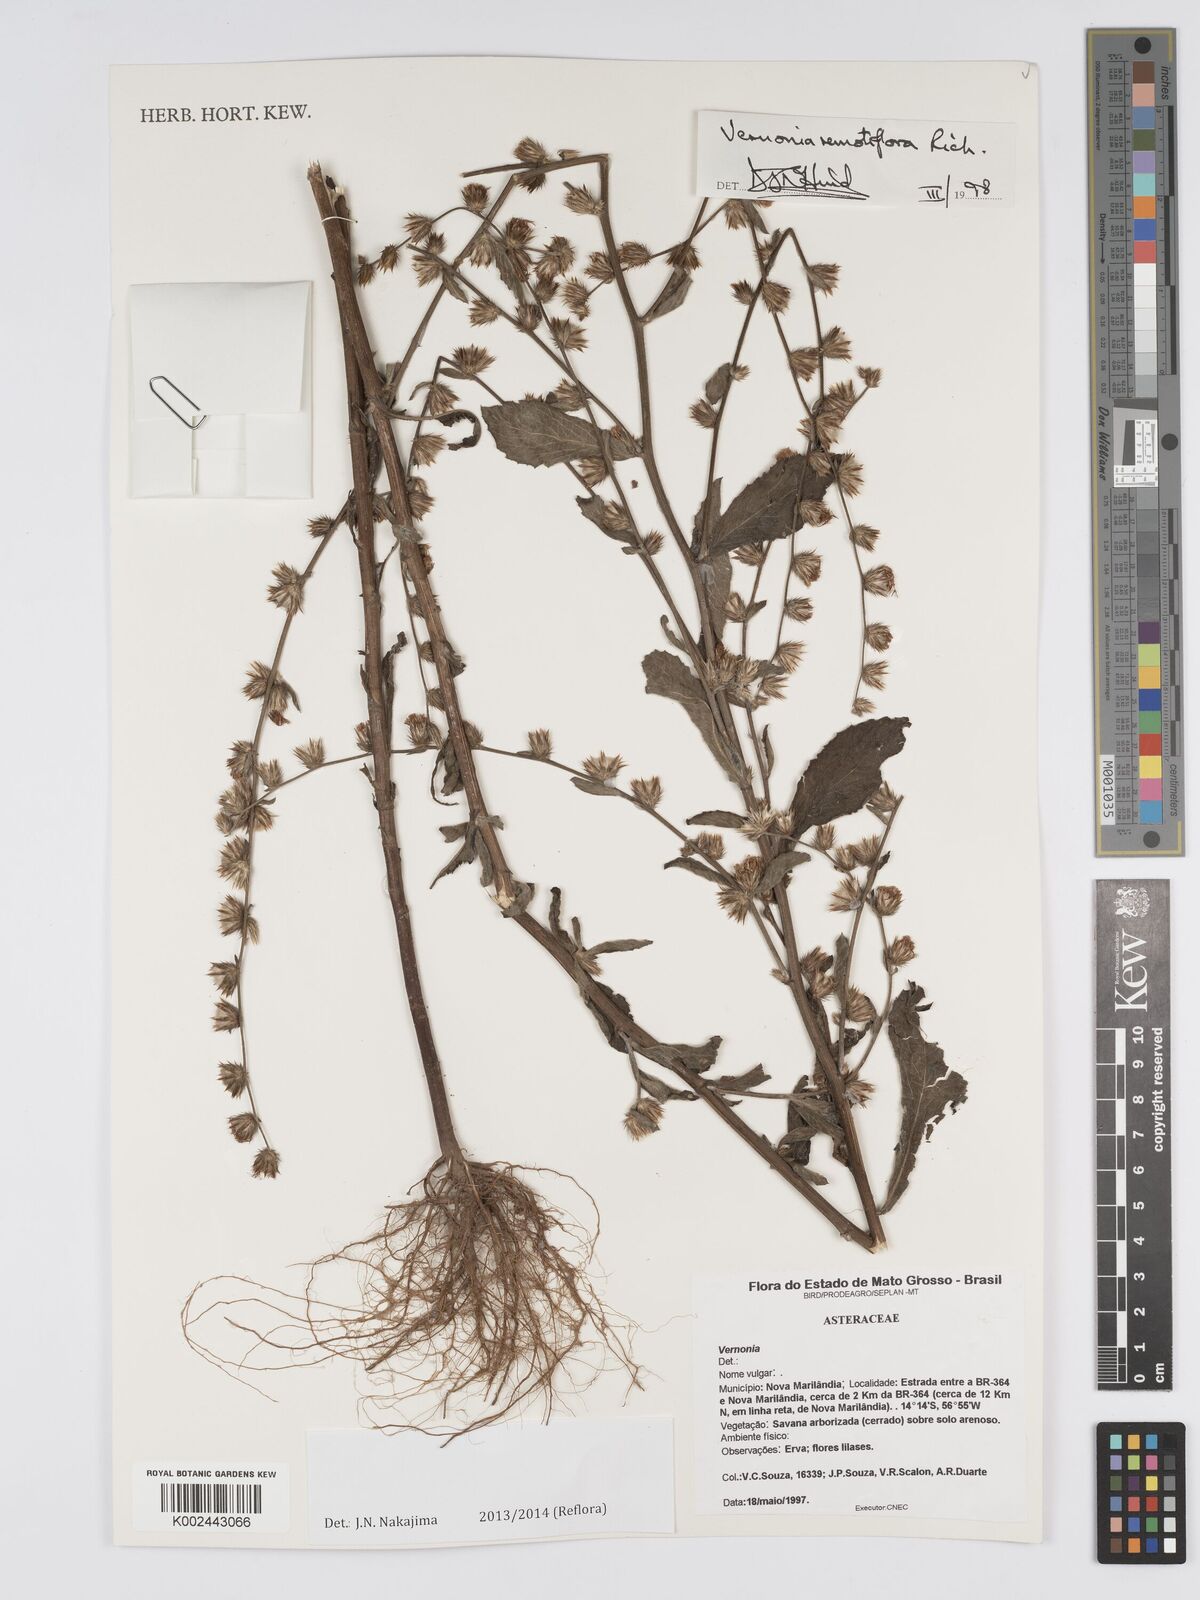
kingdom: Plantae
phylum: Tracheophyta
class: Magnoliopsida
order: Asterales
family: Asteraceae
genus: Lepidaploa
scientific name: Lepidaploa remotiflora
